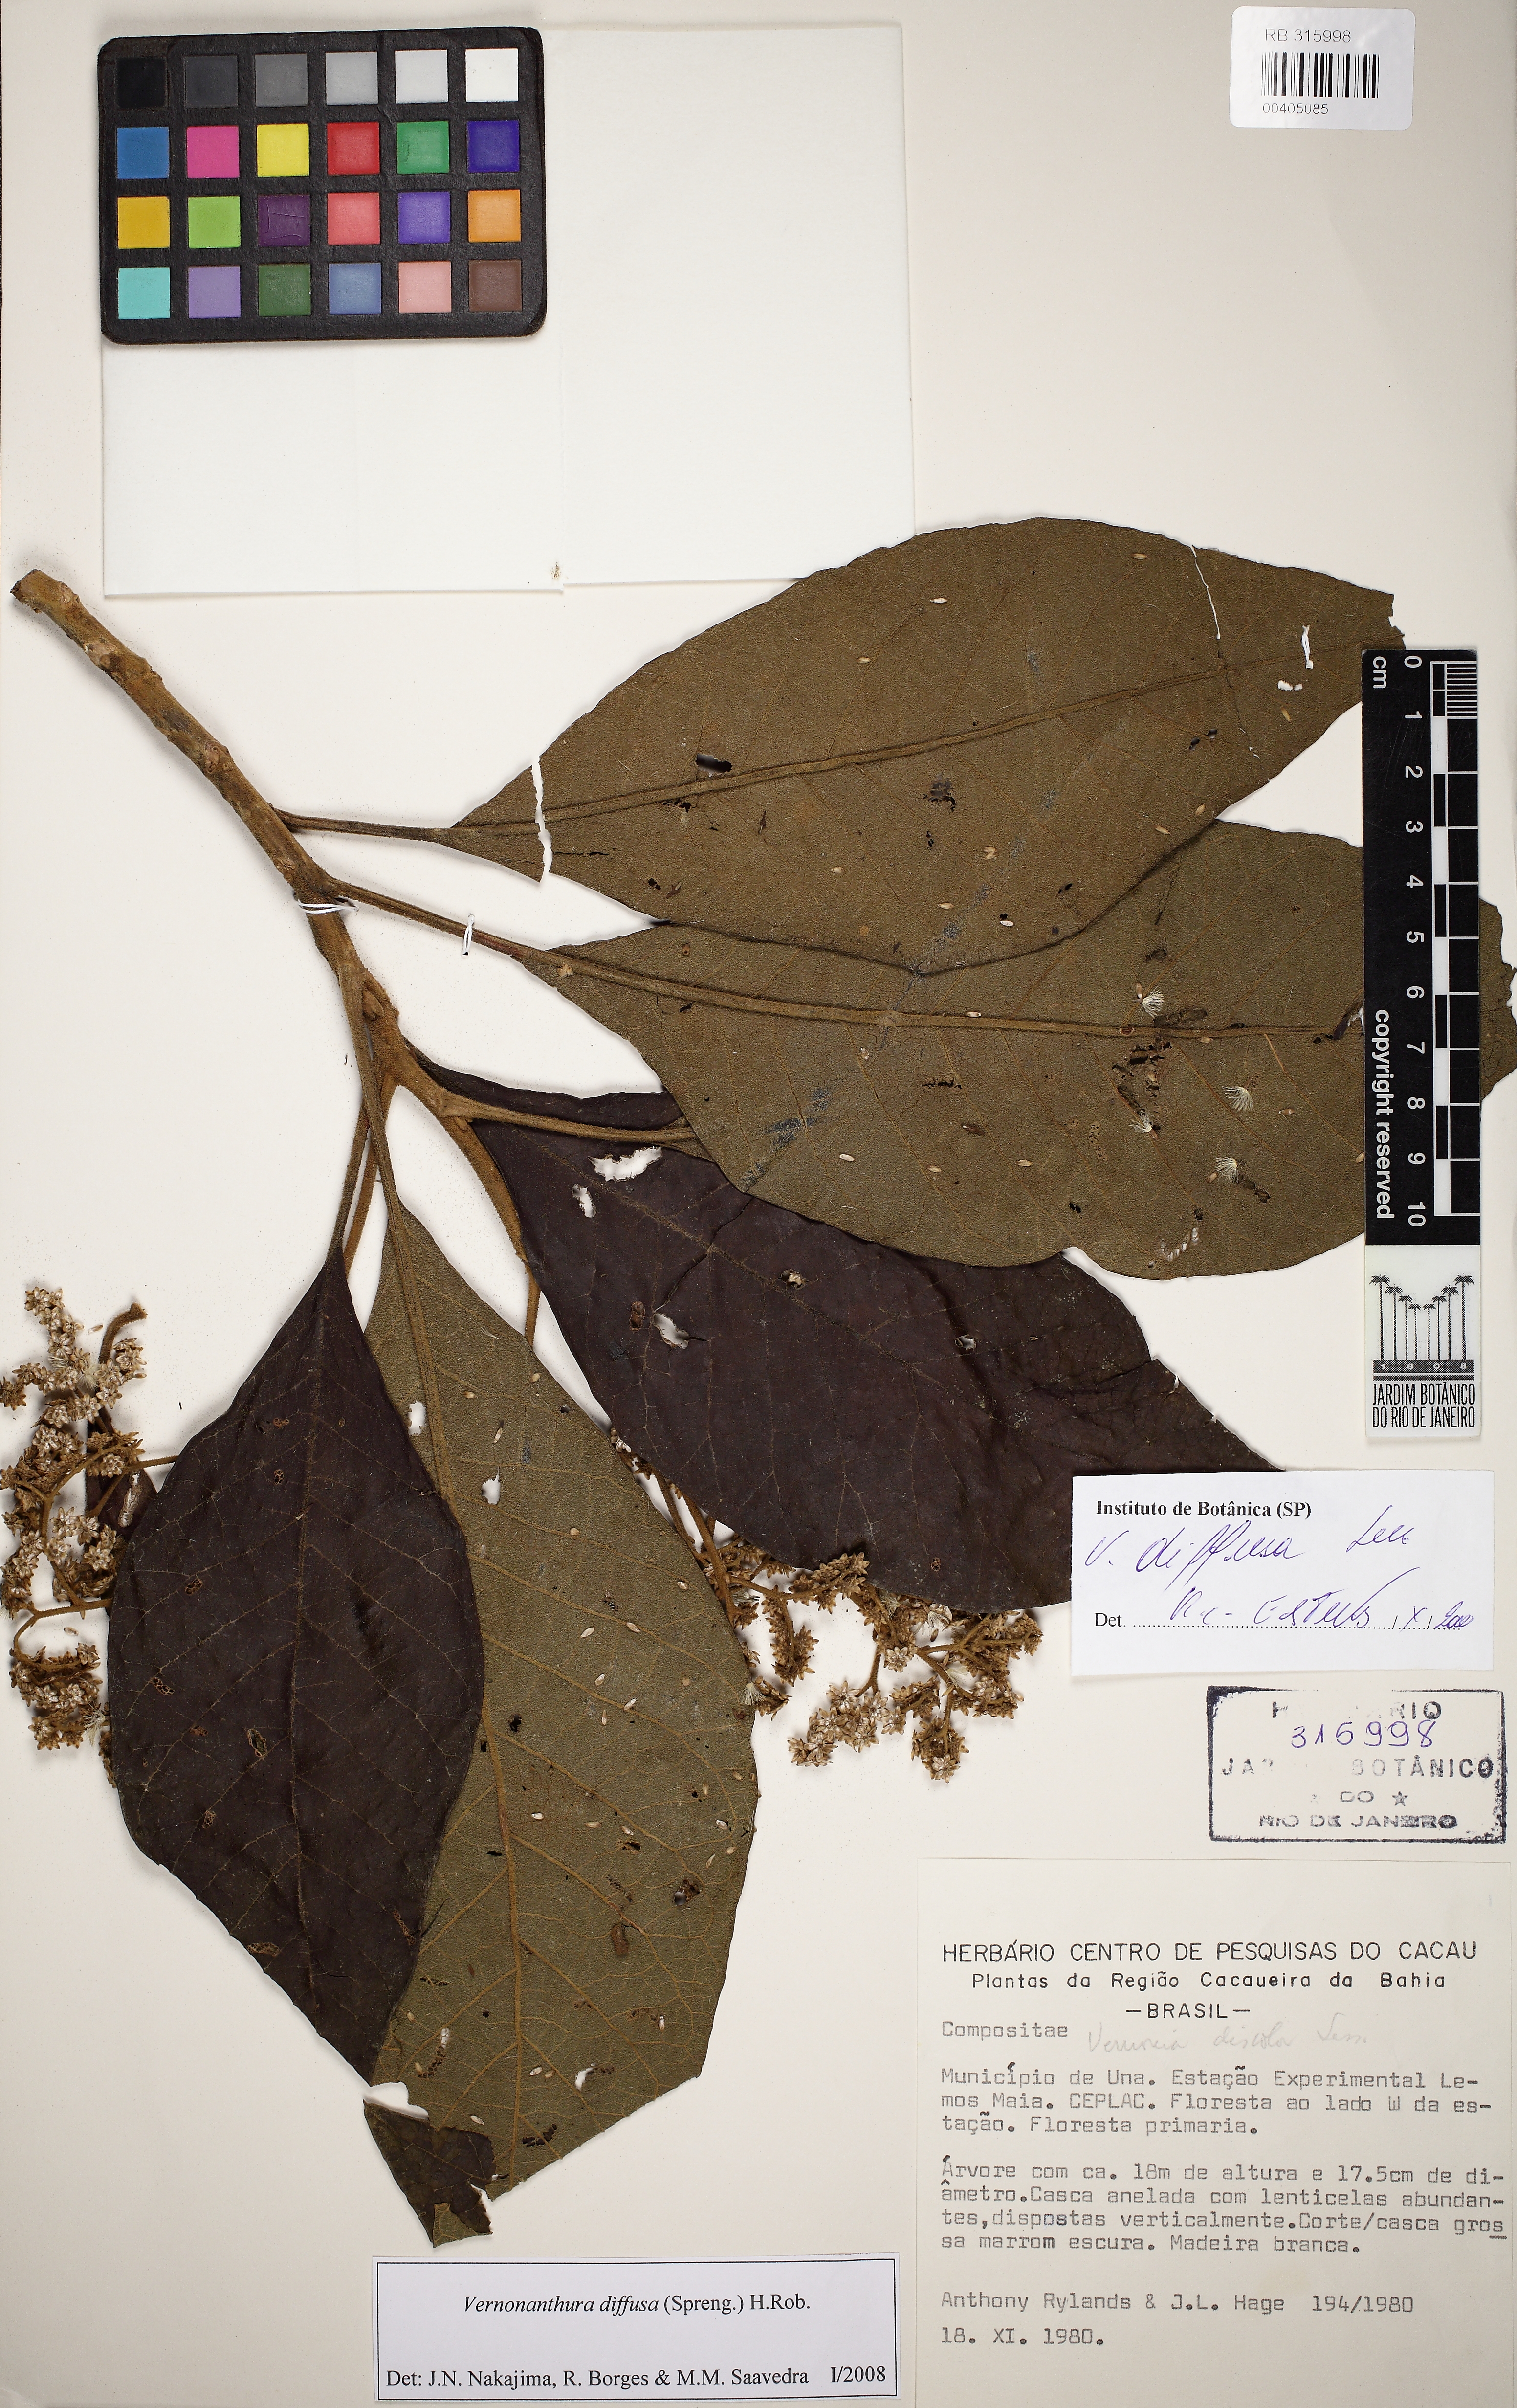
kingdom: Plantae
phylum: Tracheophyta
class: Magnoliopsida
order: Asterales
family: Asteraceae
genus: Vernonanthura
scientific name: Vernonanthura divaricata
